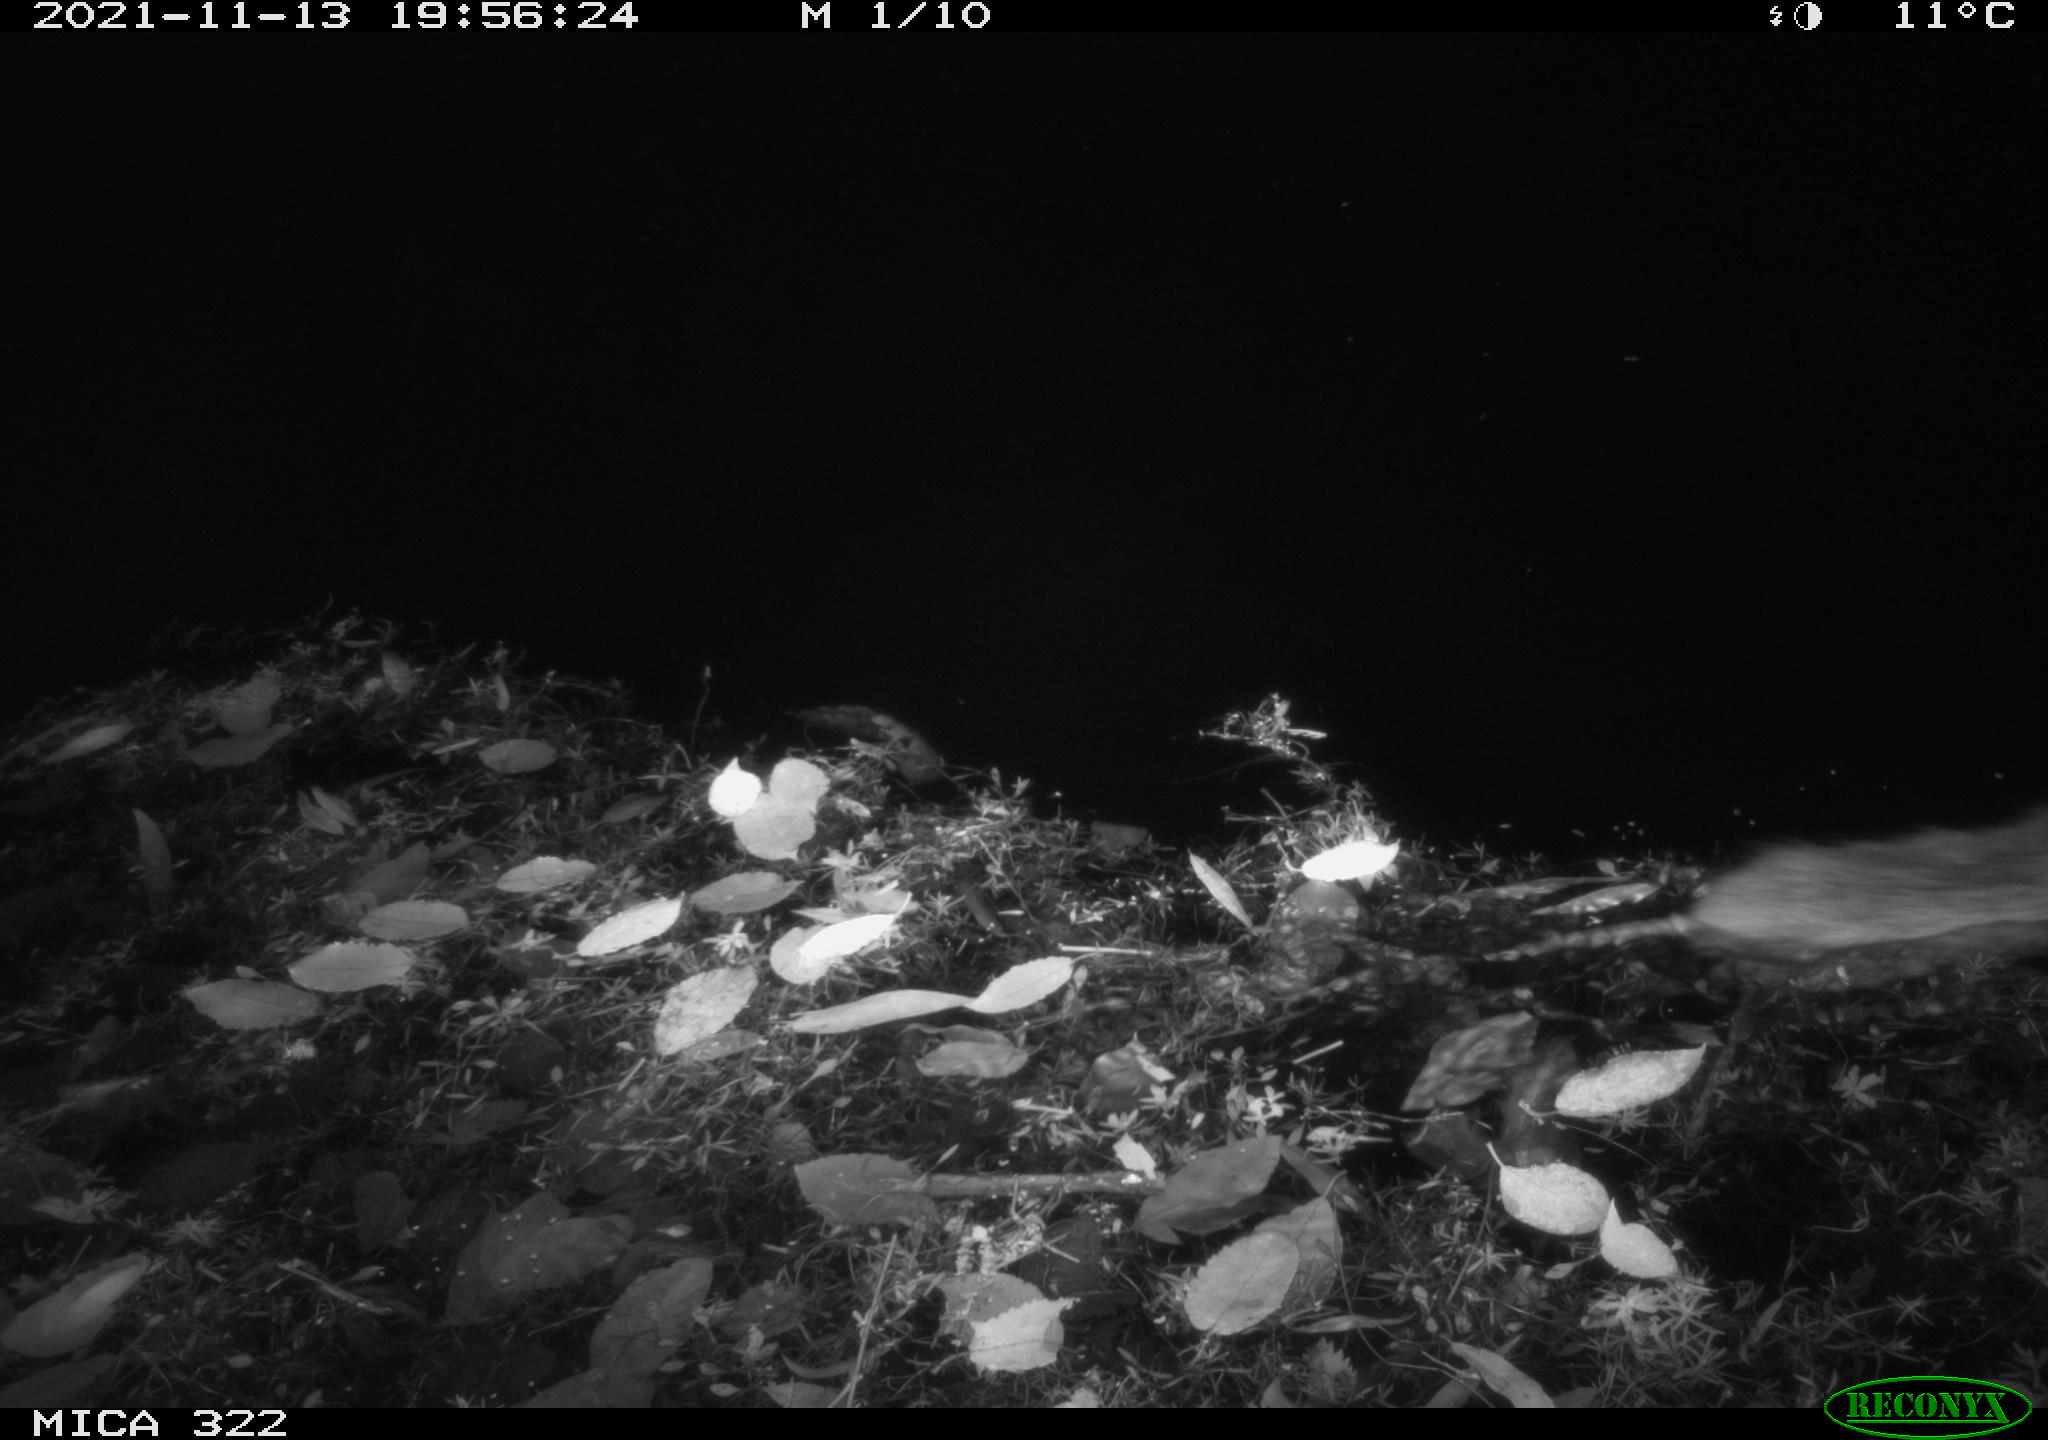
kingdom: Animalia
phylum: Chordata
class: Mammalia
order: Rodentia
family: Muridae
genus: Rattus
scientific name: Rattus norvegicus
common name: Brown rat
